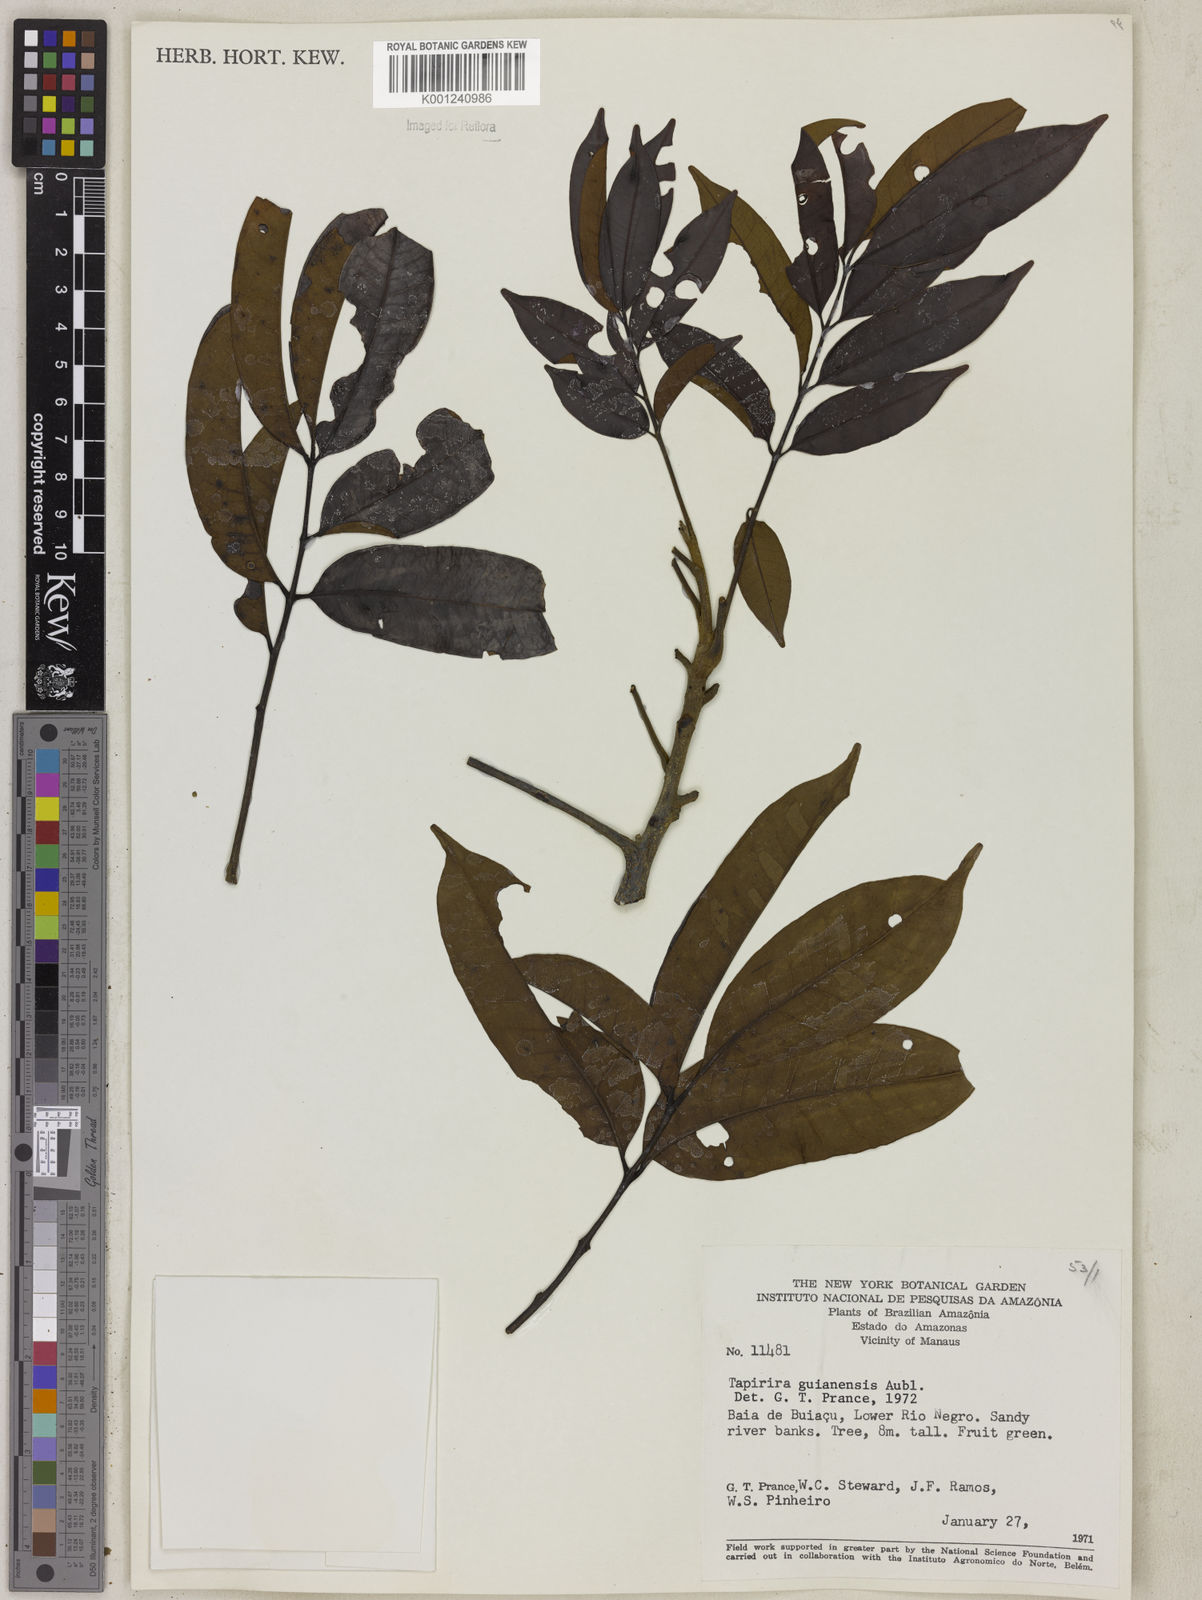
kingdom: Plantae
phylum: Tracheophyta
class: Magnoliopsida
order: Sapindales
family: Anacardiaceae
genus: Tapirira
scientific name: Tapirira guianensis
